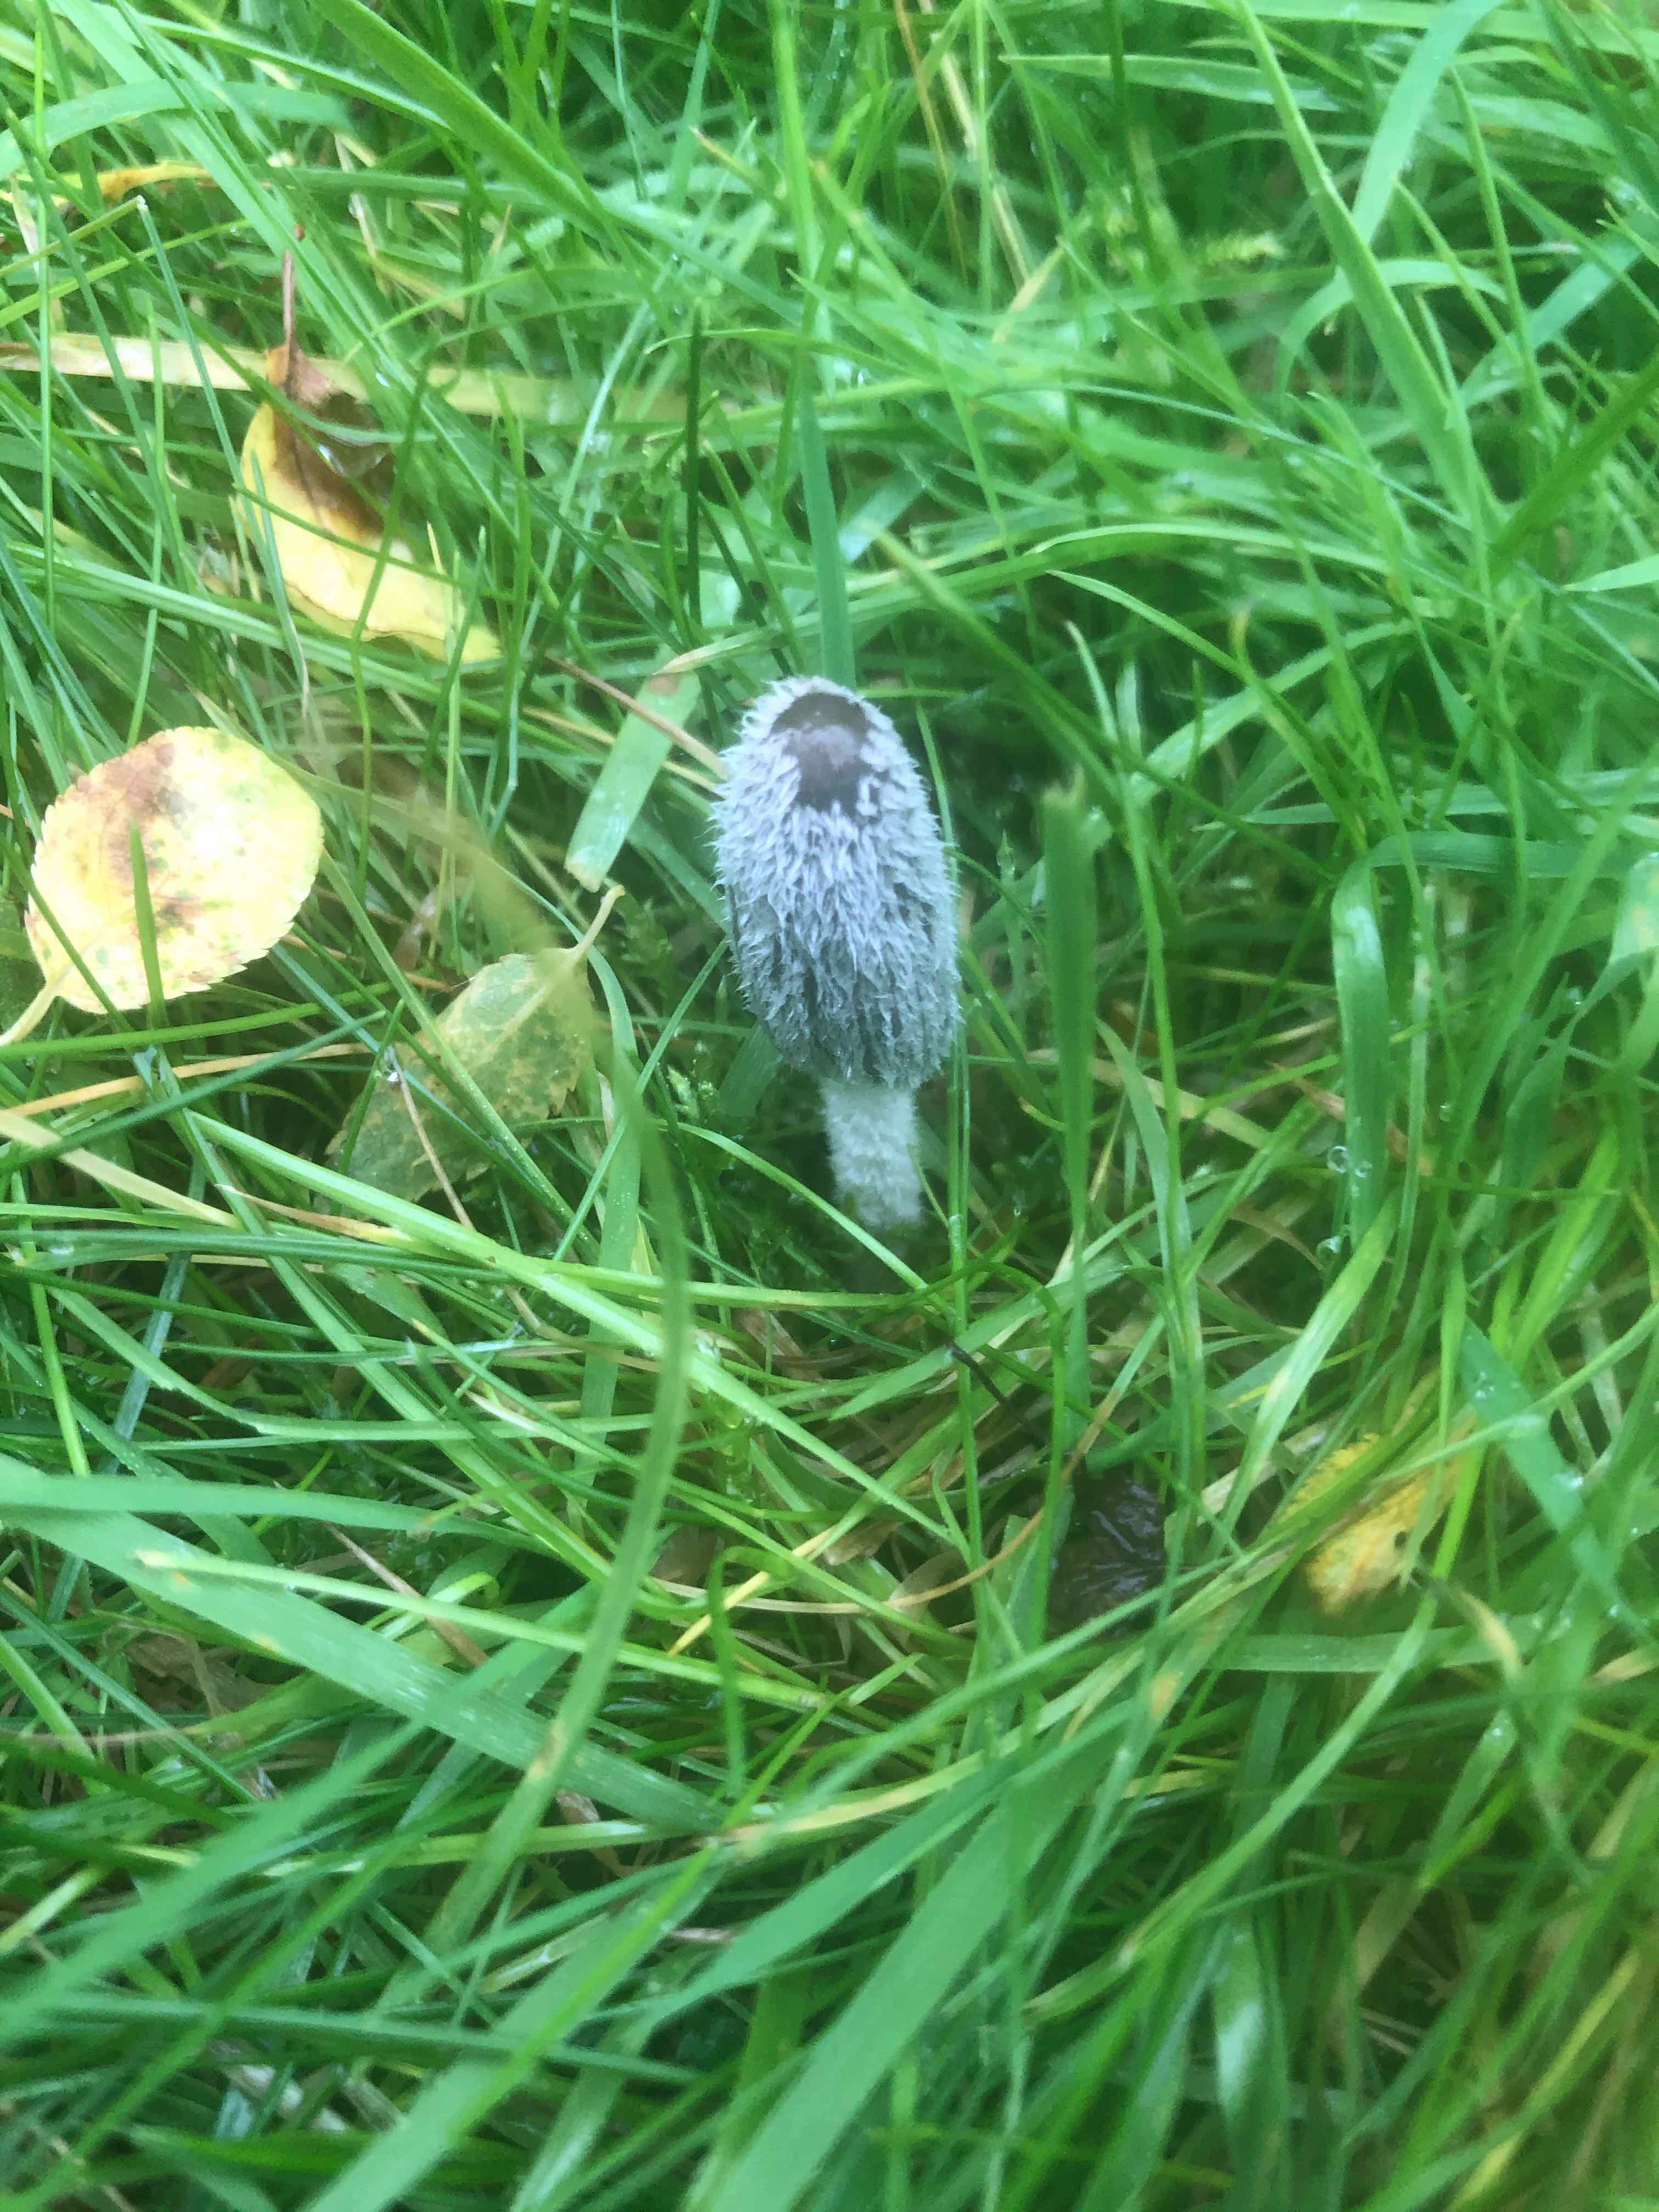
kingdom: Fungi
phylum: Basidiomycota
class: Agaricomycetes
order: Agaricales
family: Psathyrellaceae
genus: Coprinopsis
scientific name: Coprinopsis lagopus
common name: dunstokket blækhat
